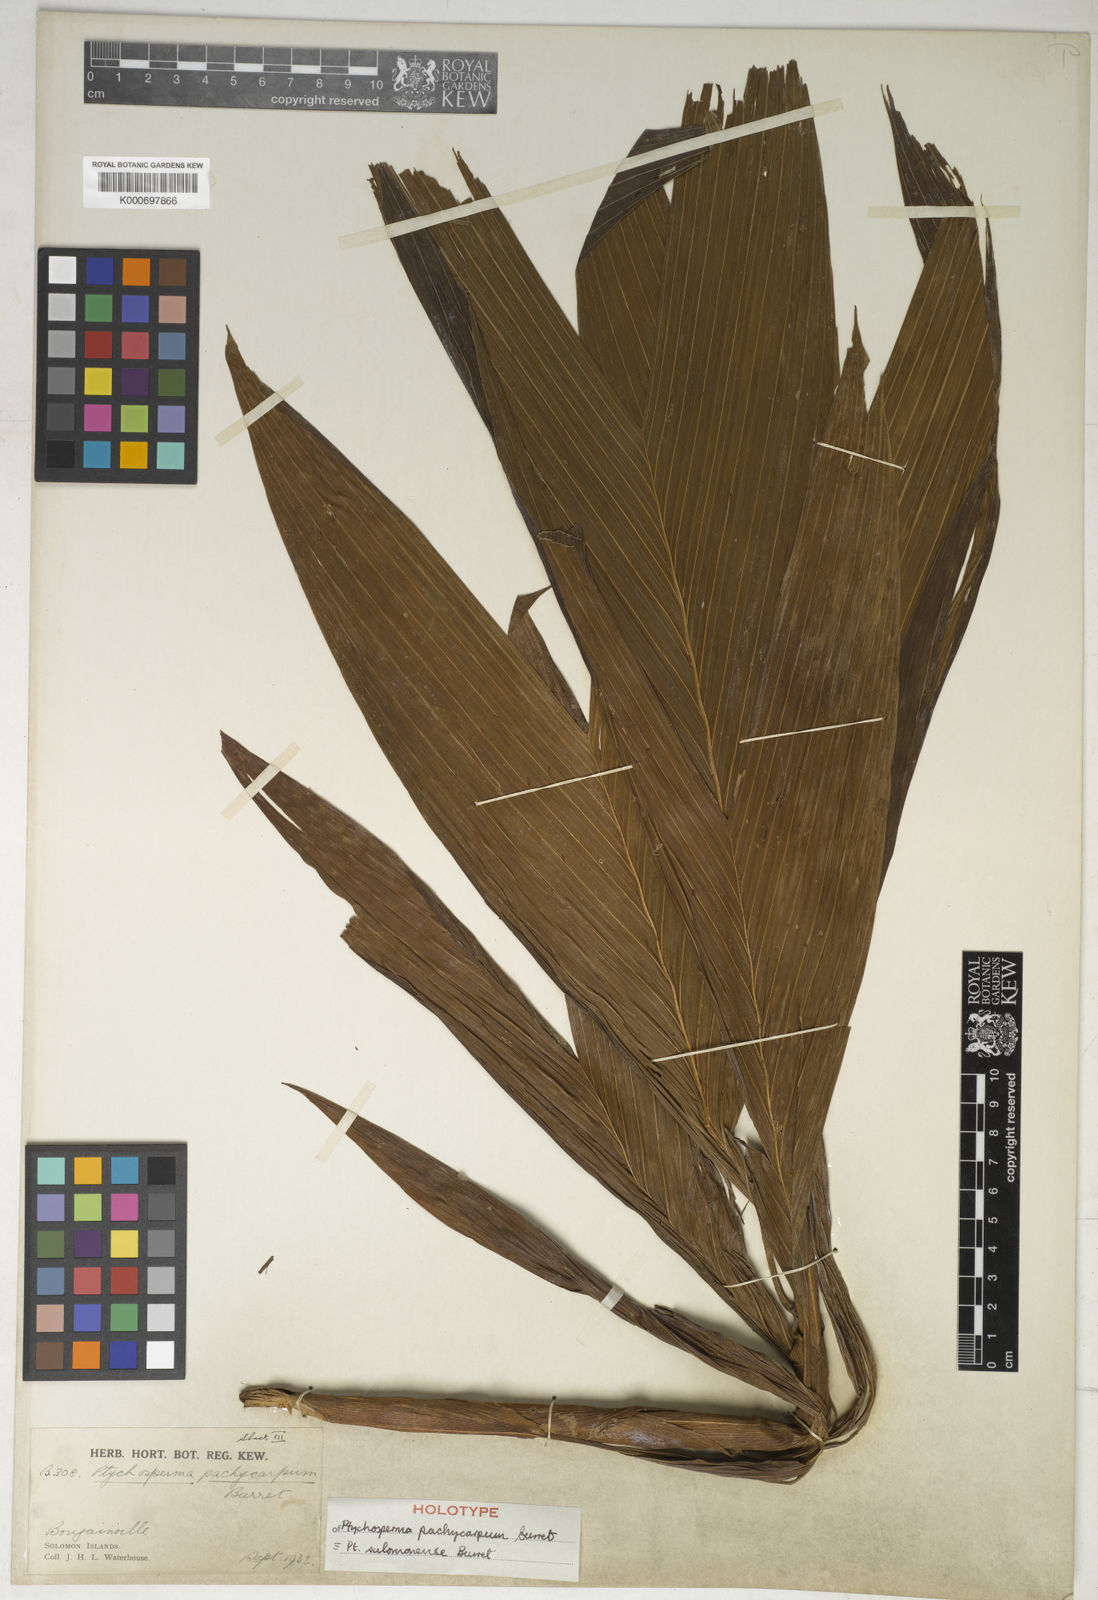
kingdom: Plantae
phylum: Tracheophyta
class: Liliopsida
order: Arecales
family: Arecaceae
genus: Ptychosperma
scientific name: Ptychosperma salomonense
